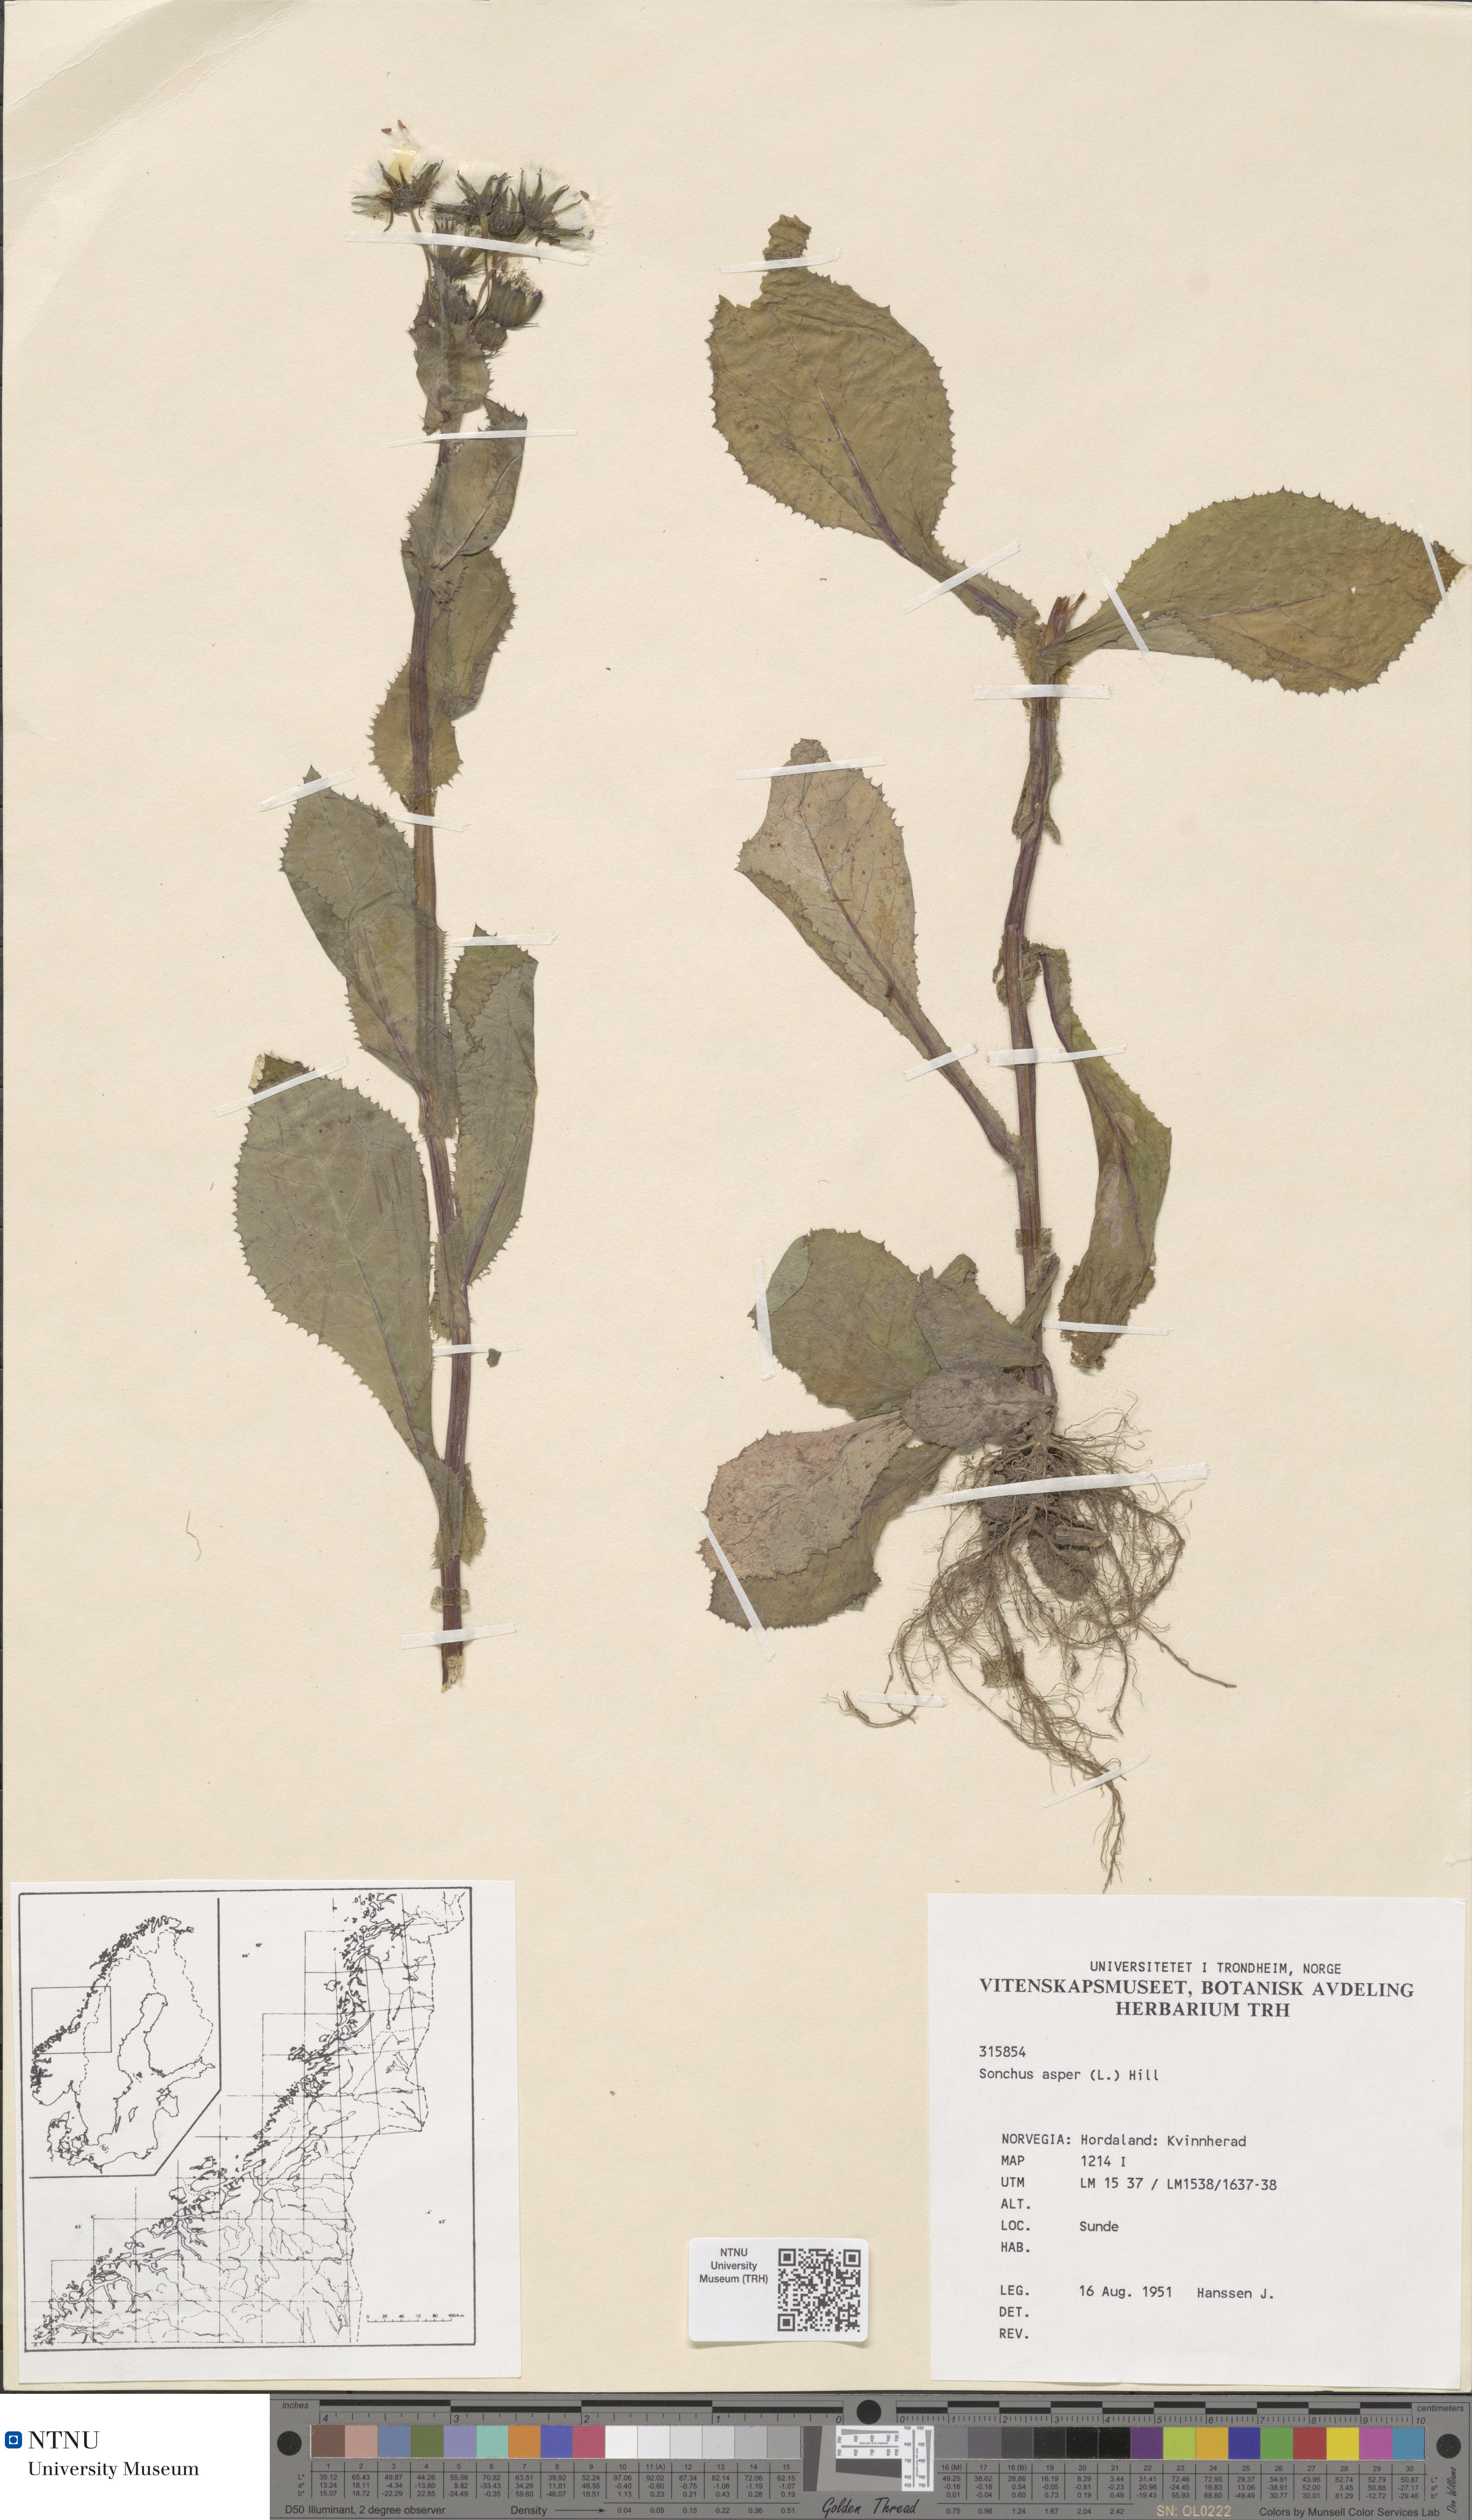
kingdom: Plantae
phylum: Tracheophyta
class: Magnoliopsida
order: Asterales
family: Asteraceae
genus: Sonchus
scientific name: Sonchus asper
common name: Prickly sow-thistle
